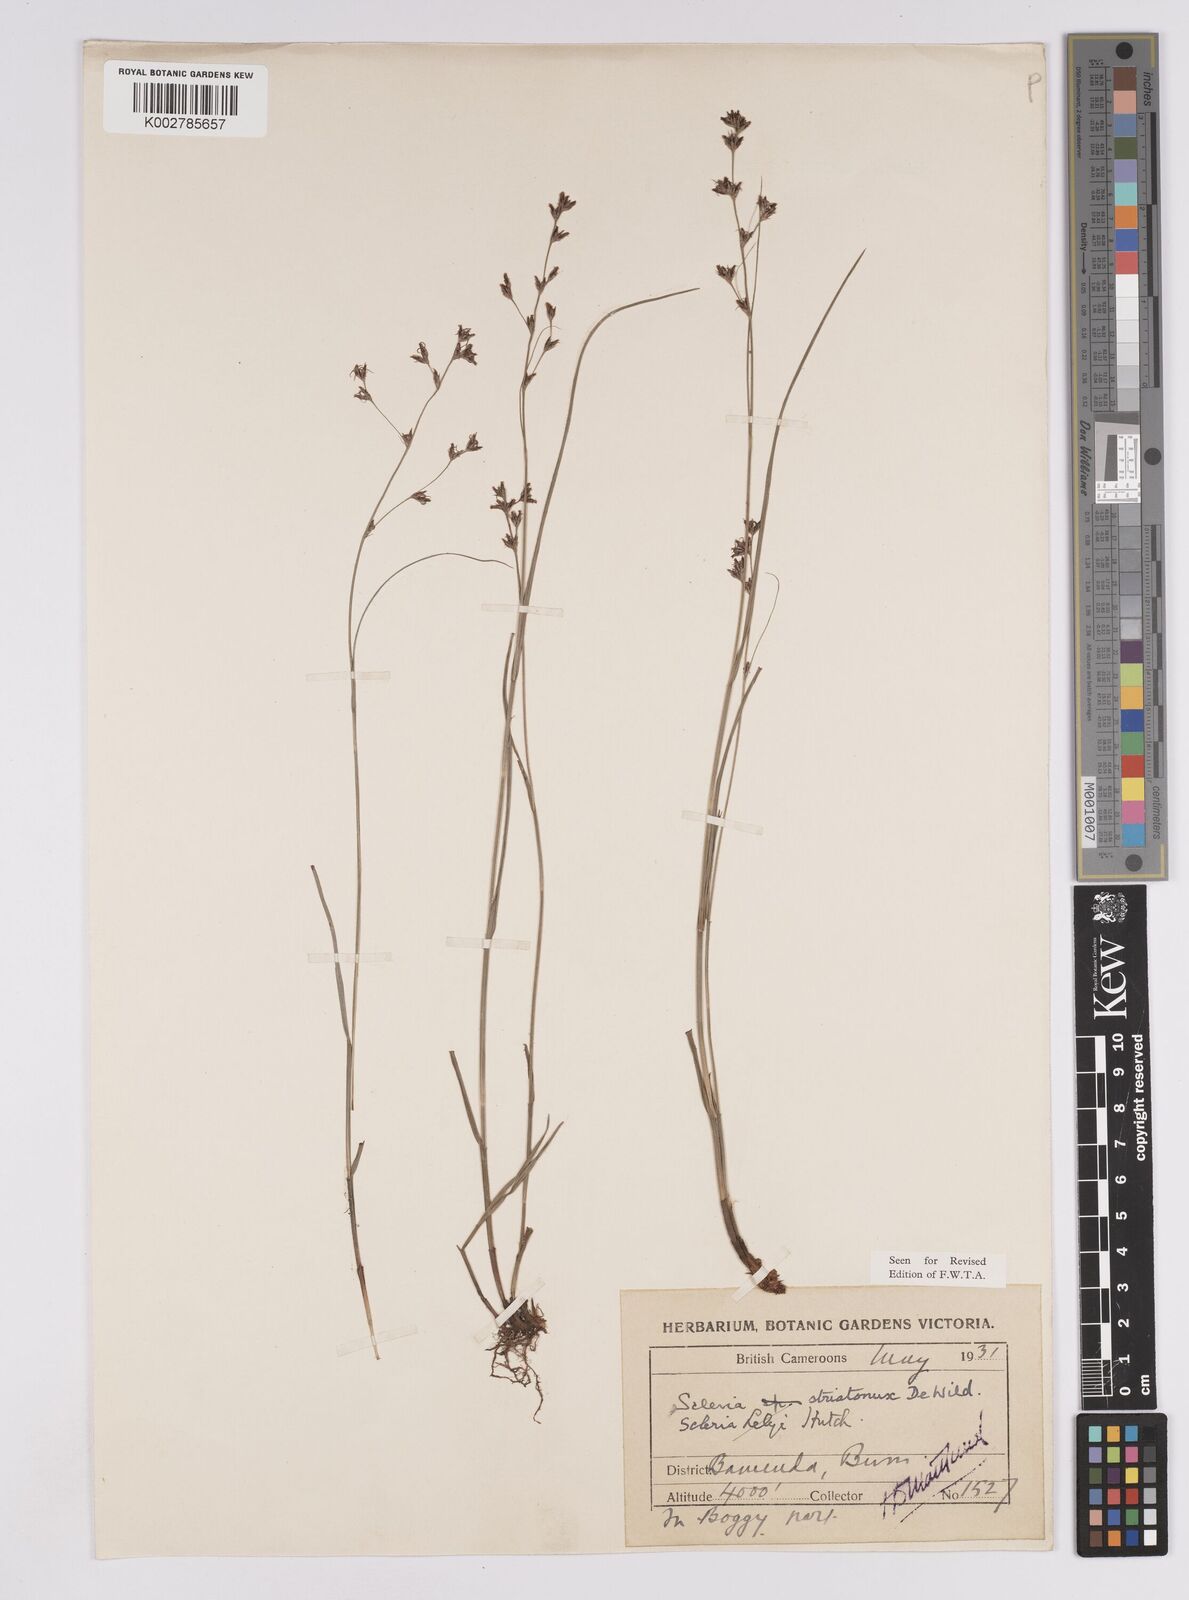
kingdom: Plantae
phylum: Tracheophyta
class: Liliopsida
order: Poales
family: Cyperaceae
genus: Scleria
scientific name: Scleria woodii
